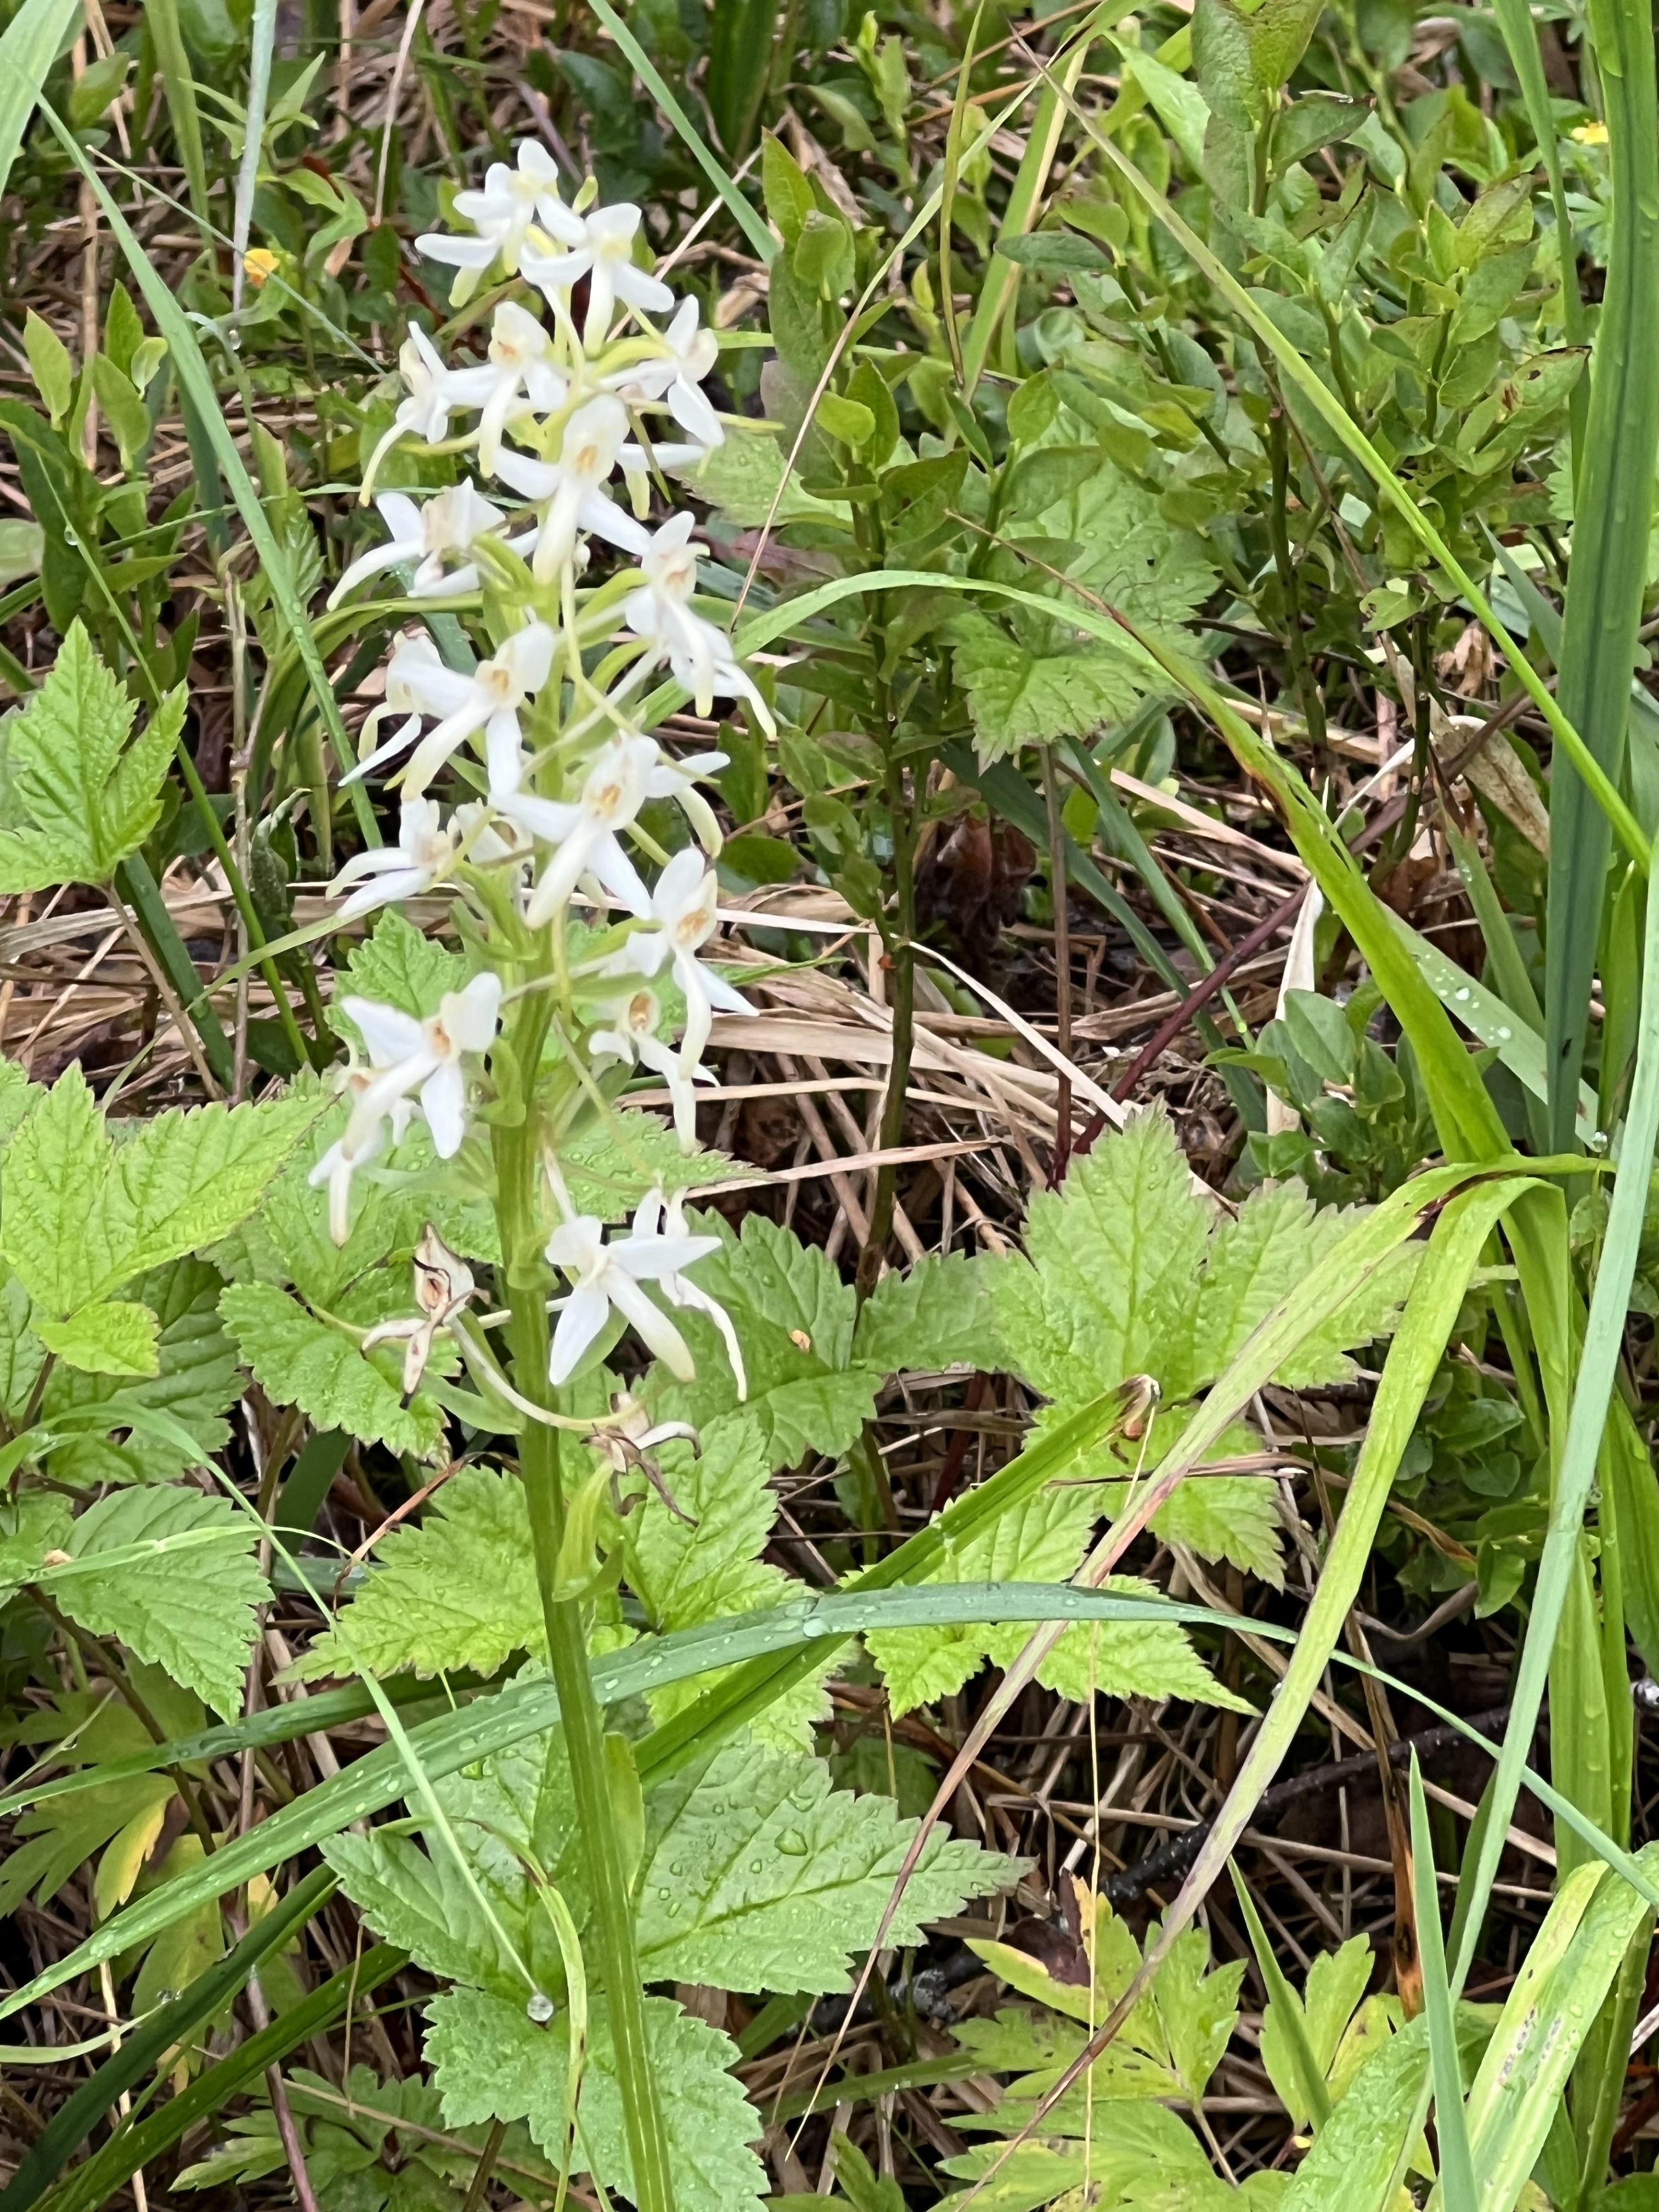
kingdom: Plantae
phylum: Tracheophyta
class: Liliopsida
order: Asparagales
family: Orchidaceae
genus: Platanthera
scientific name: Platanthera bifolia
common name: Lesser butterfly-orchid
